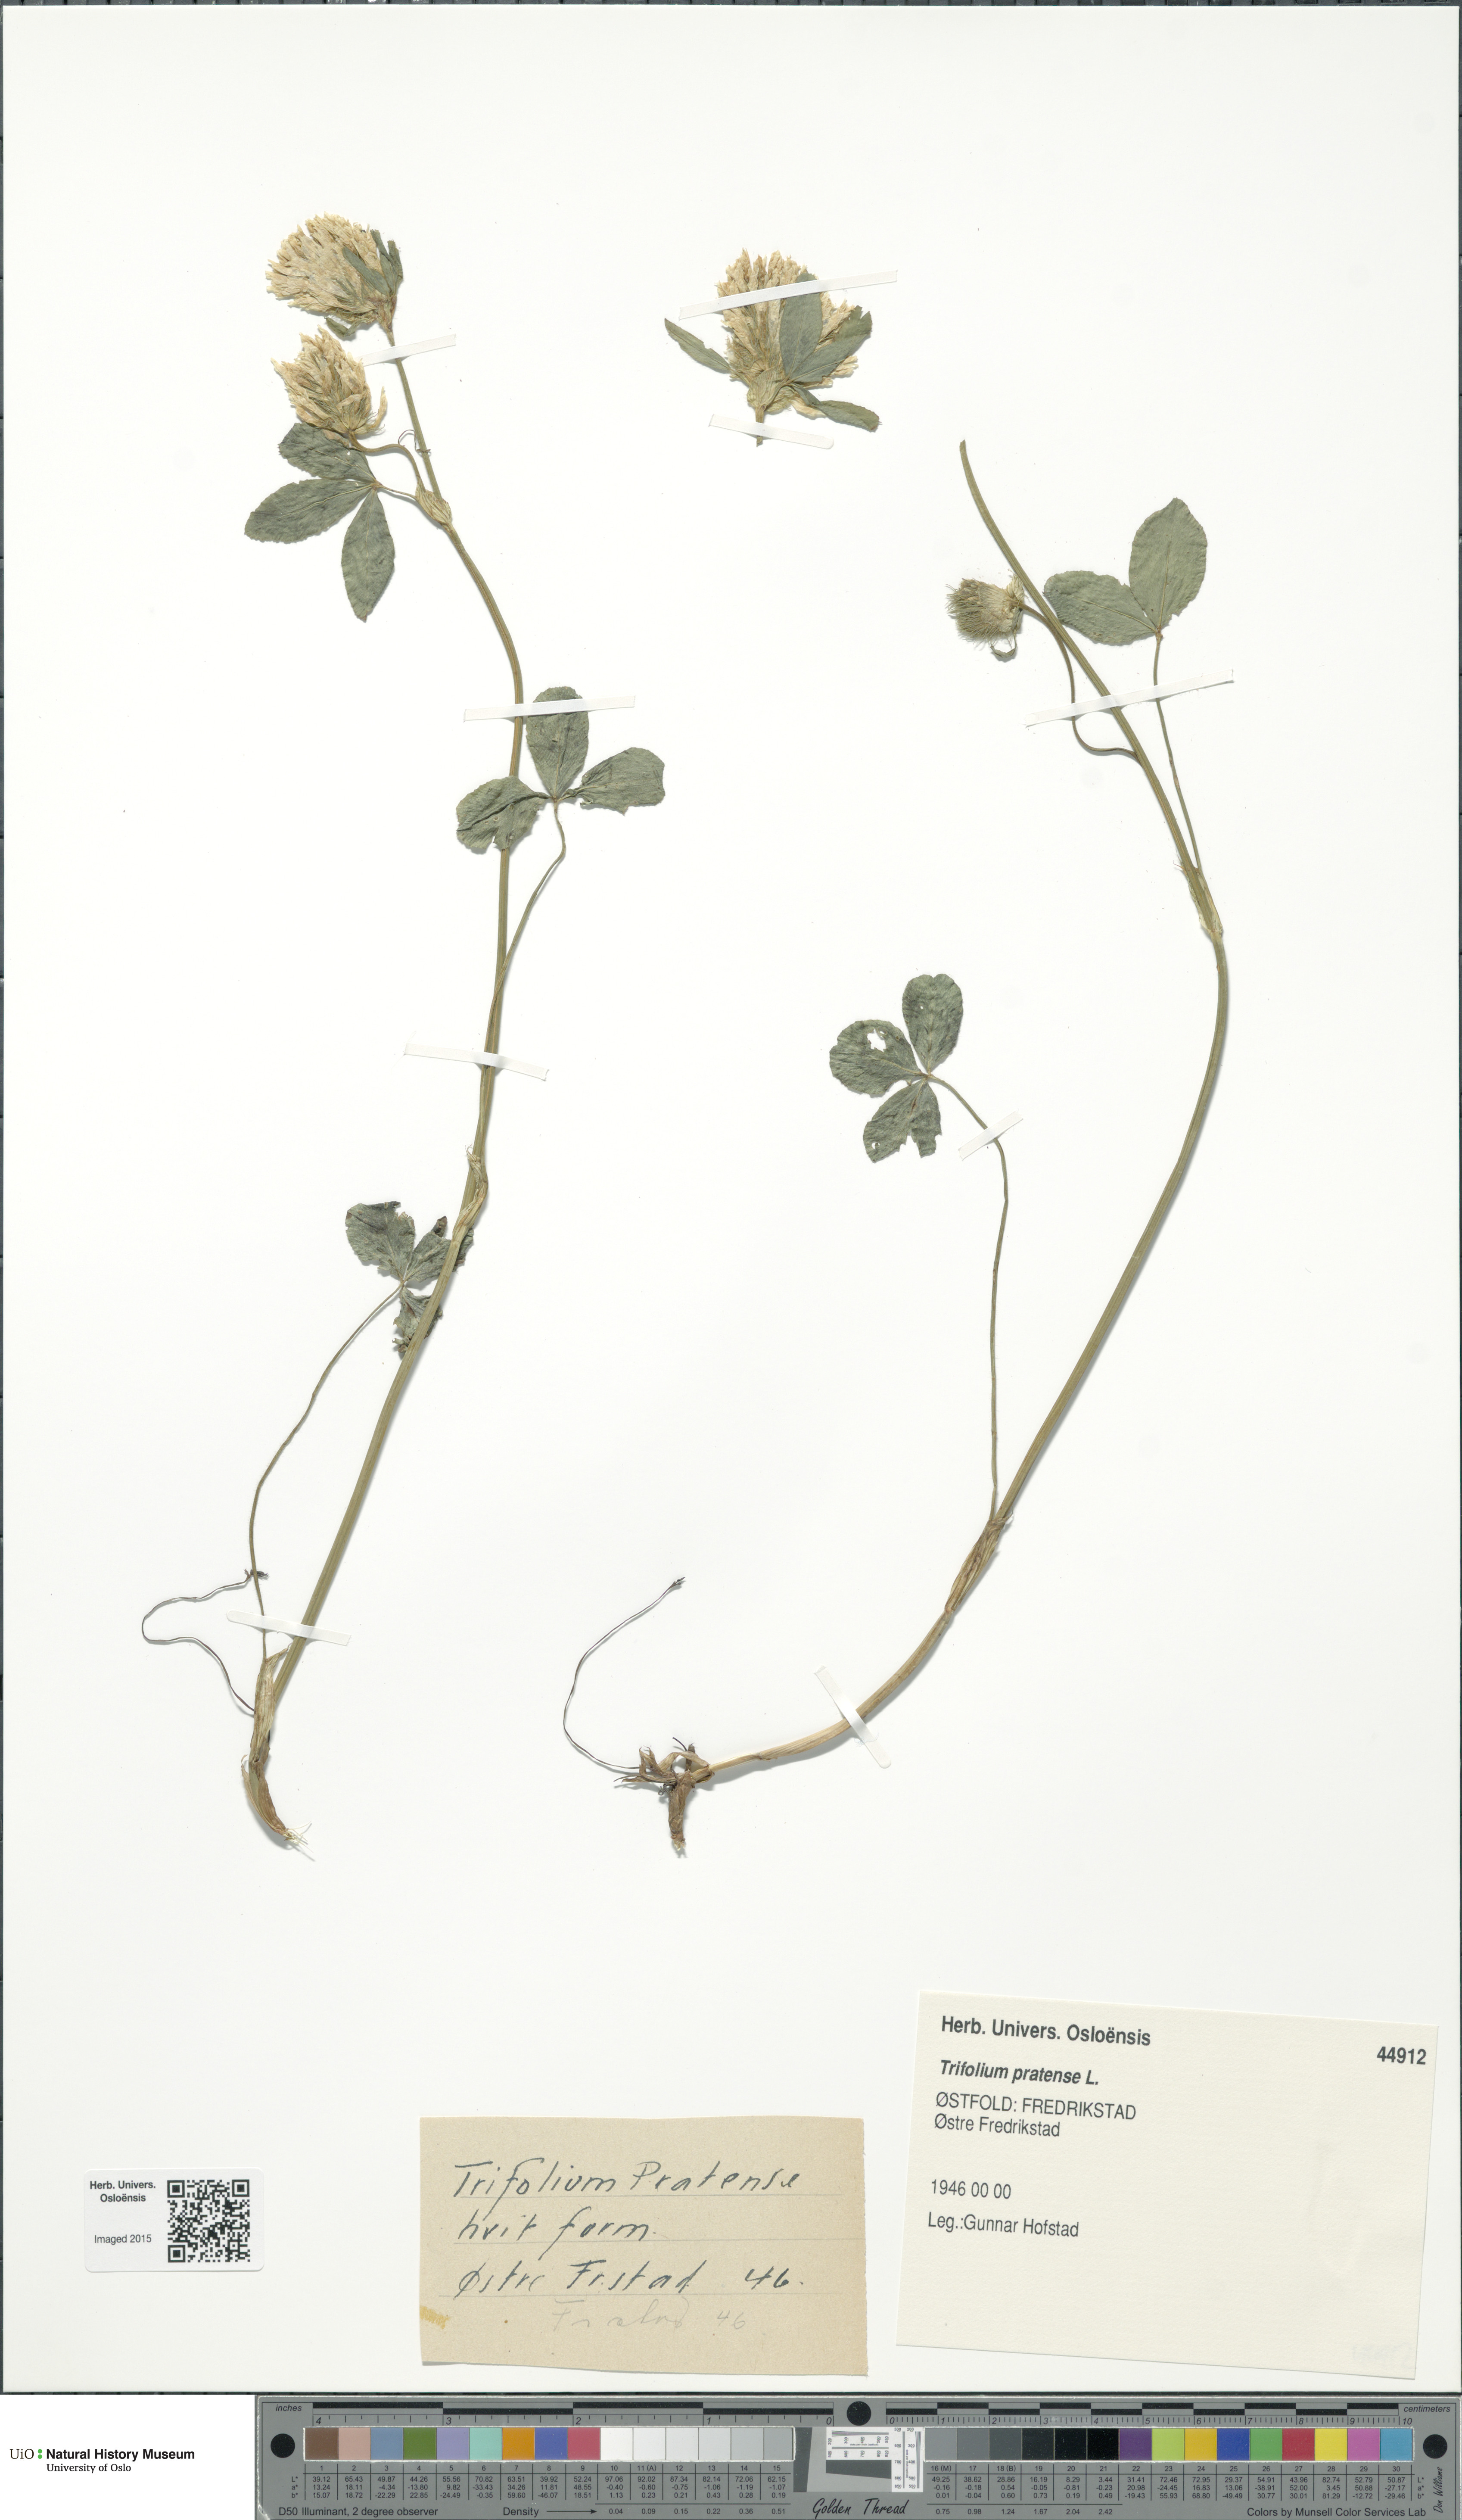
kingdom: Plantae
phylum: Tracheophyta
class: Magnoliopsida
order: Fabales
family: Fabaceae
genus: Trifolium
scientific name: Trifolium pratense
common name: Red clover
